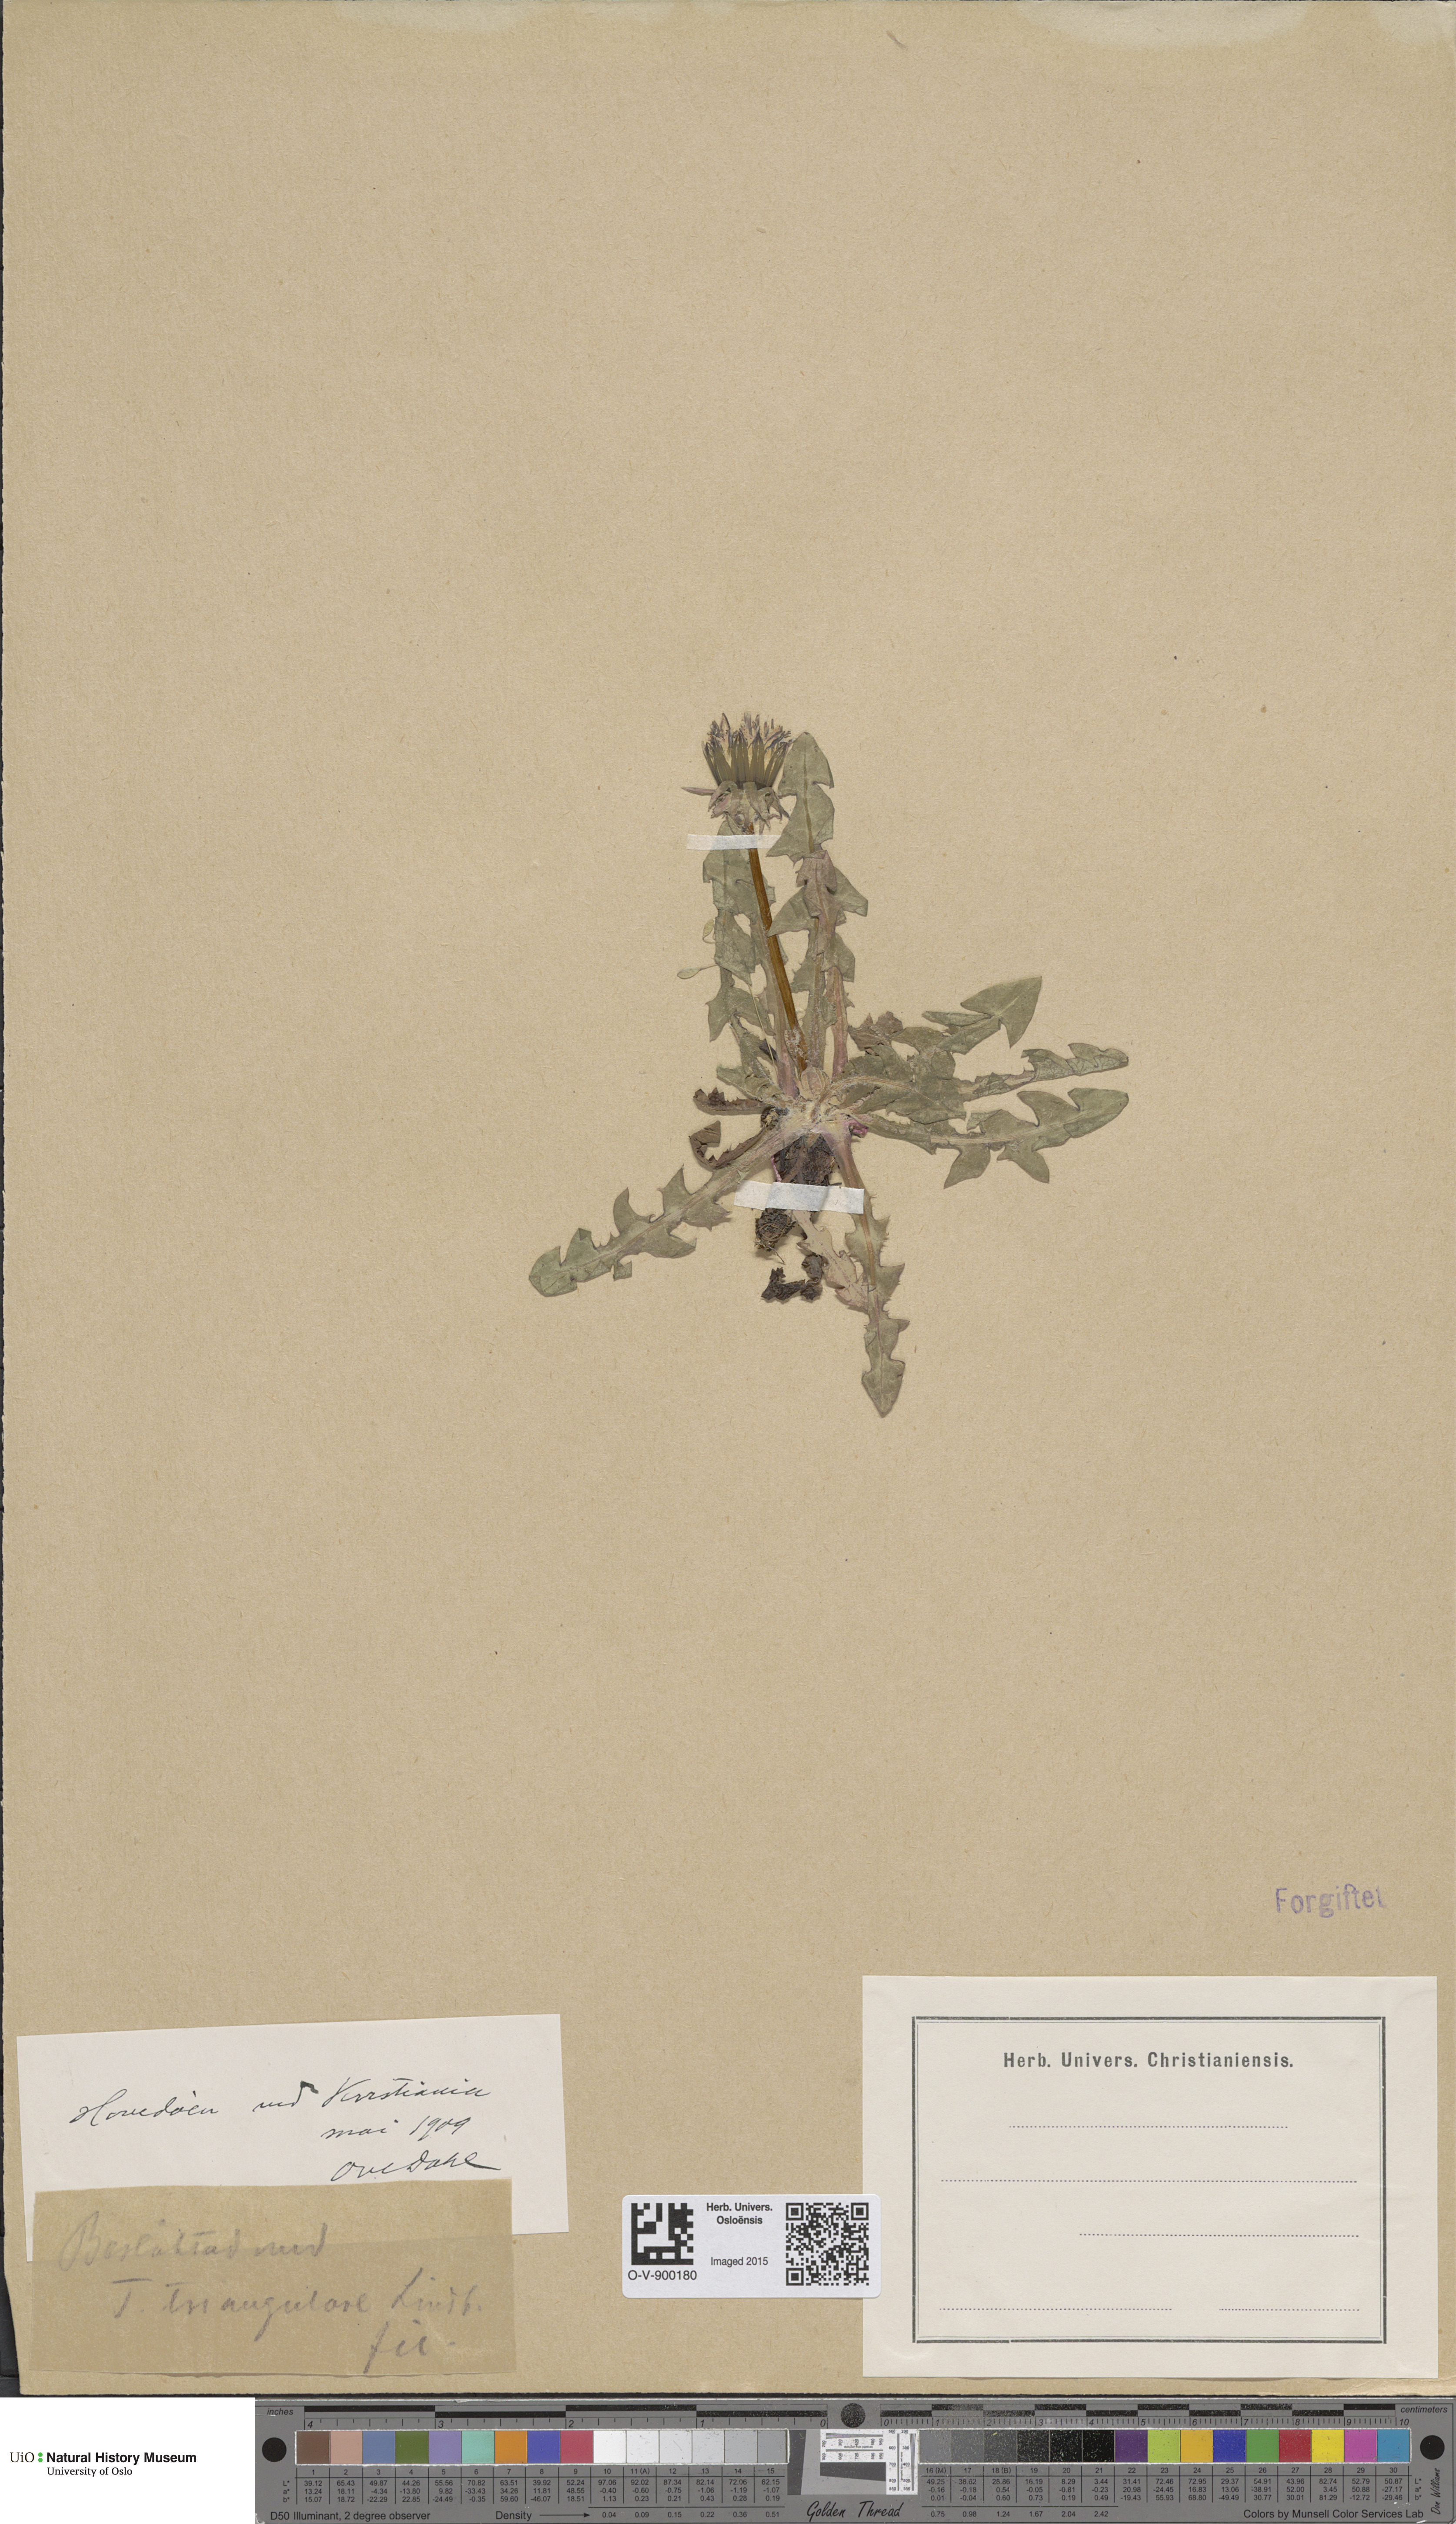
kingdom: Plantae
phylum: Tracheophyta
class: Magnoliopsida
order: Asterales
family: Asteraceae
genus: Taraxacum
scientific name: Taraxacum triangulare
